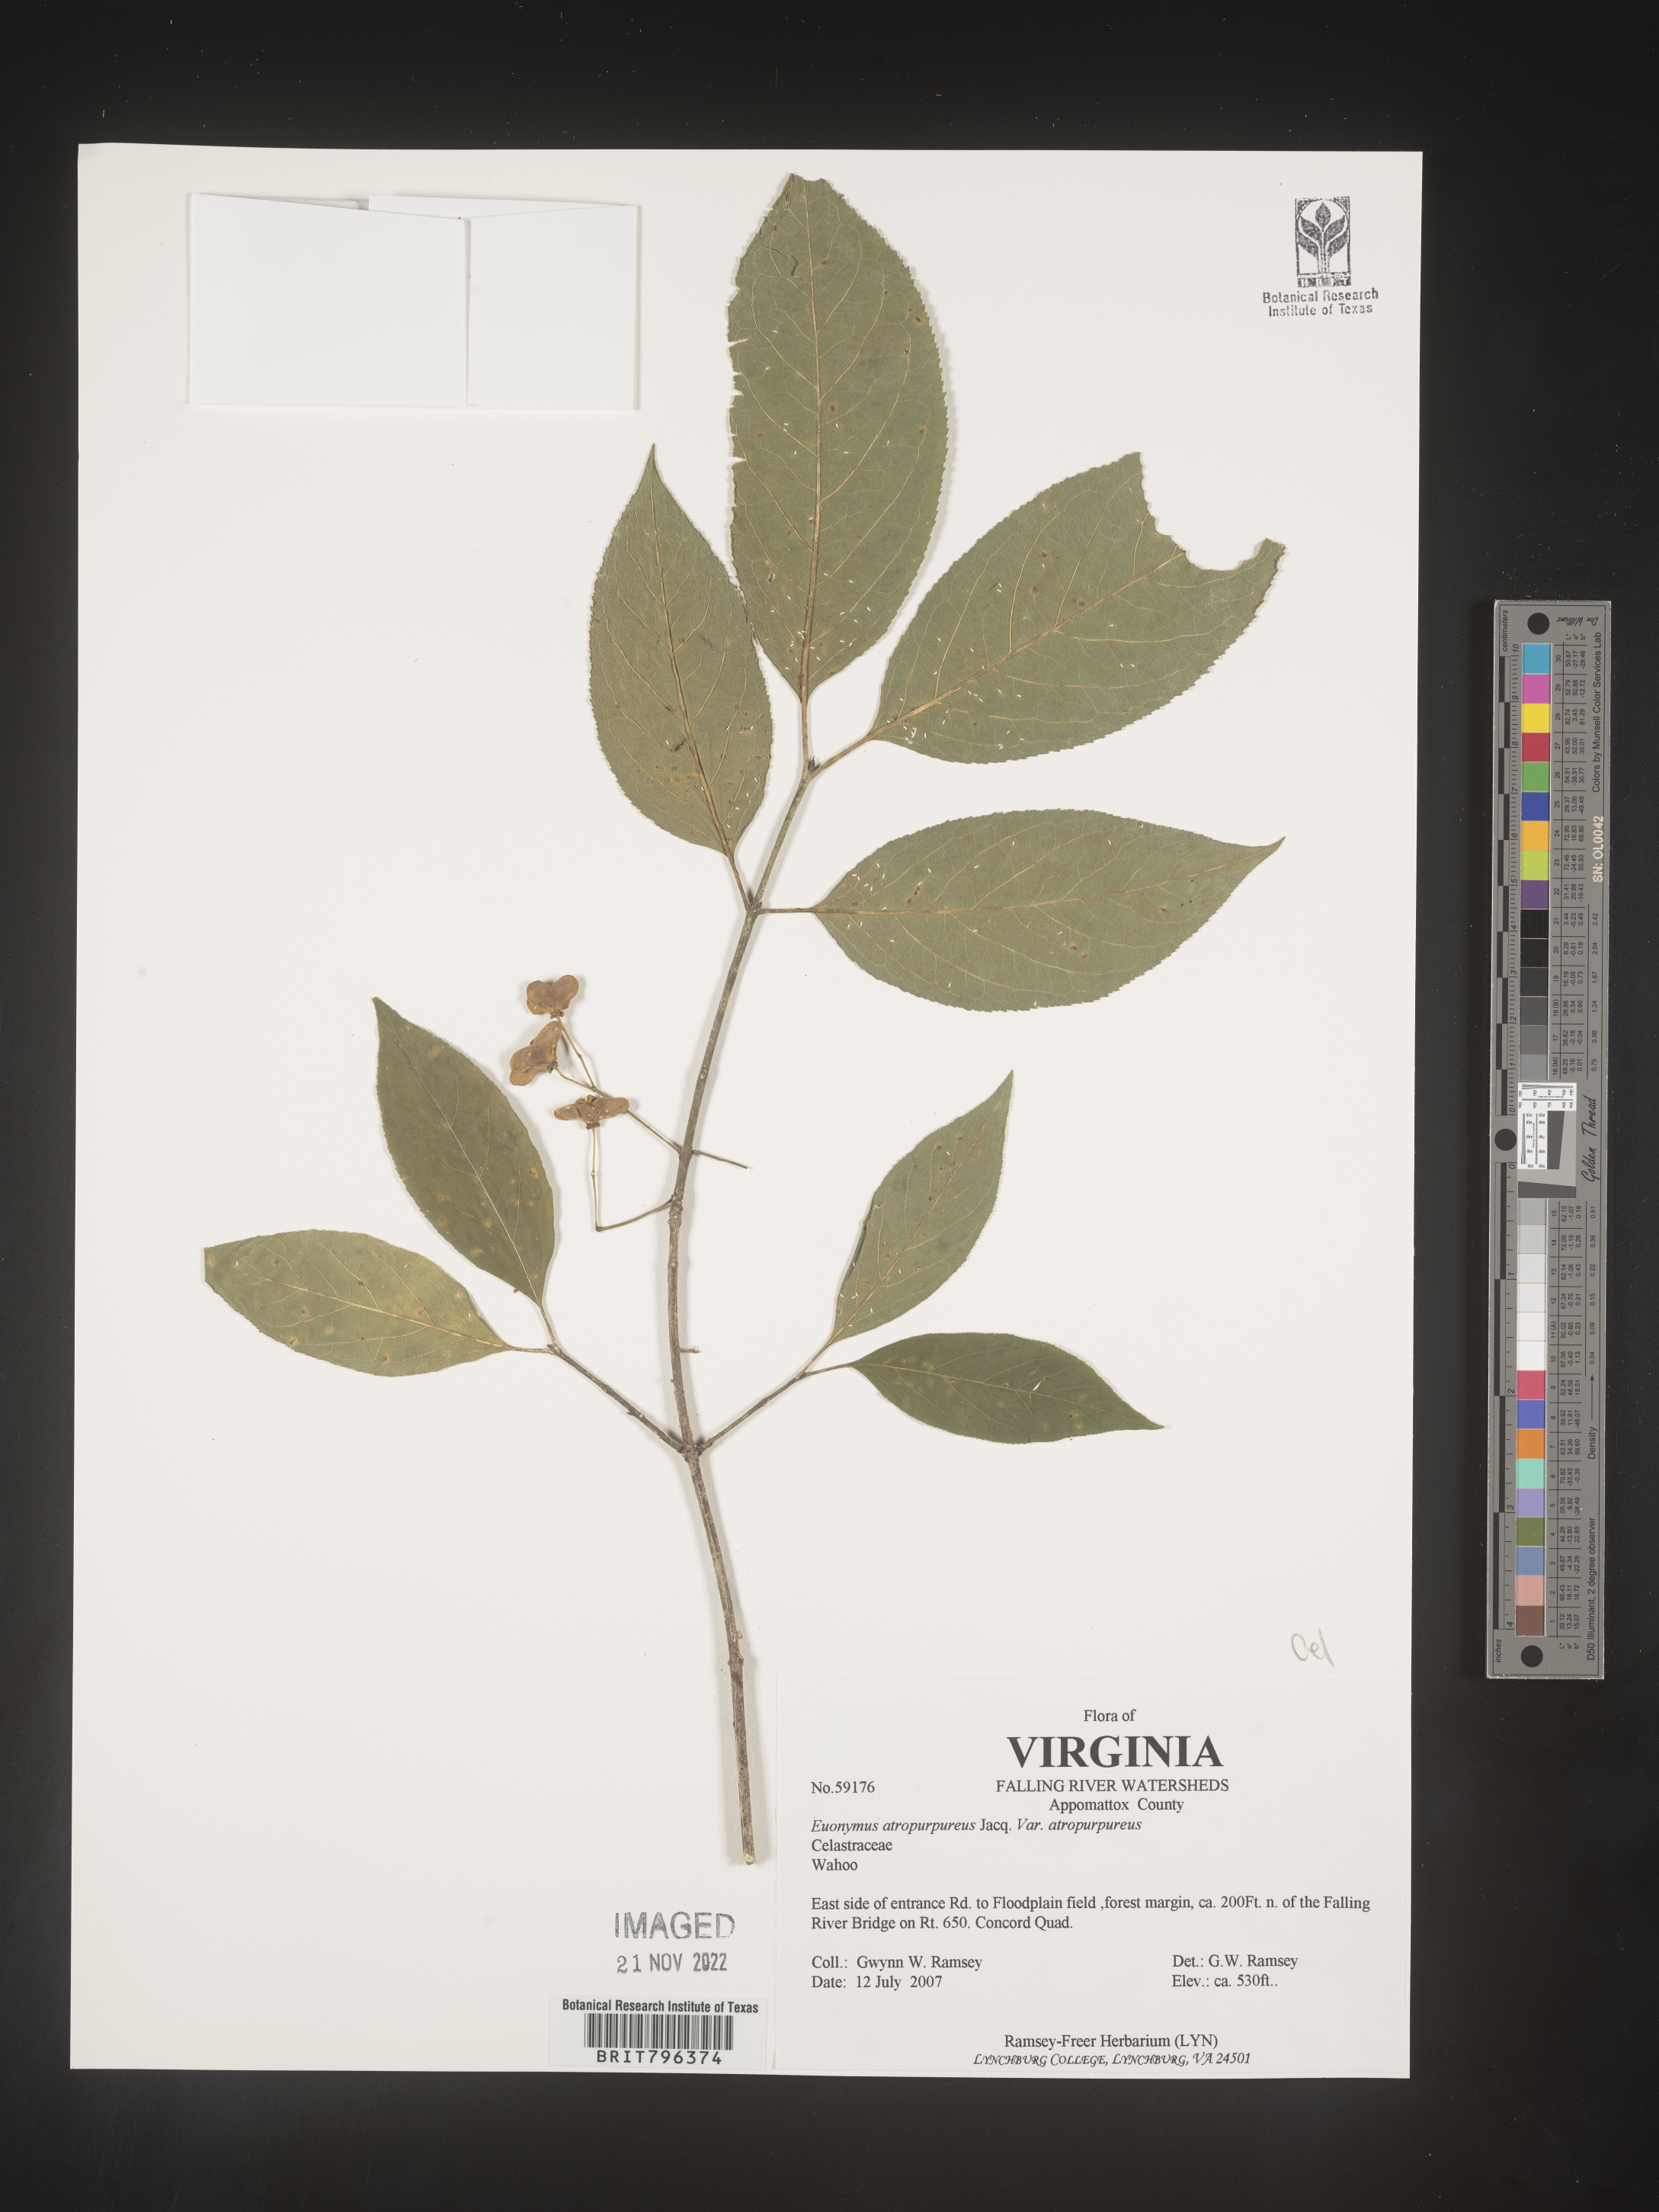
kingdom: Plantae
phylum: Tracheophyta
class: Magnoliopsida
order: Celastrales
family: Celastraceae
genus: Euonymus
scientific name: Euonymus atropurpureus
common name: Eastern wahoo
